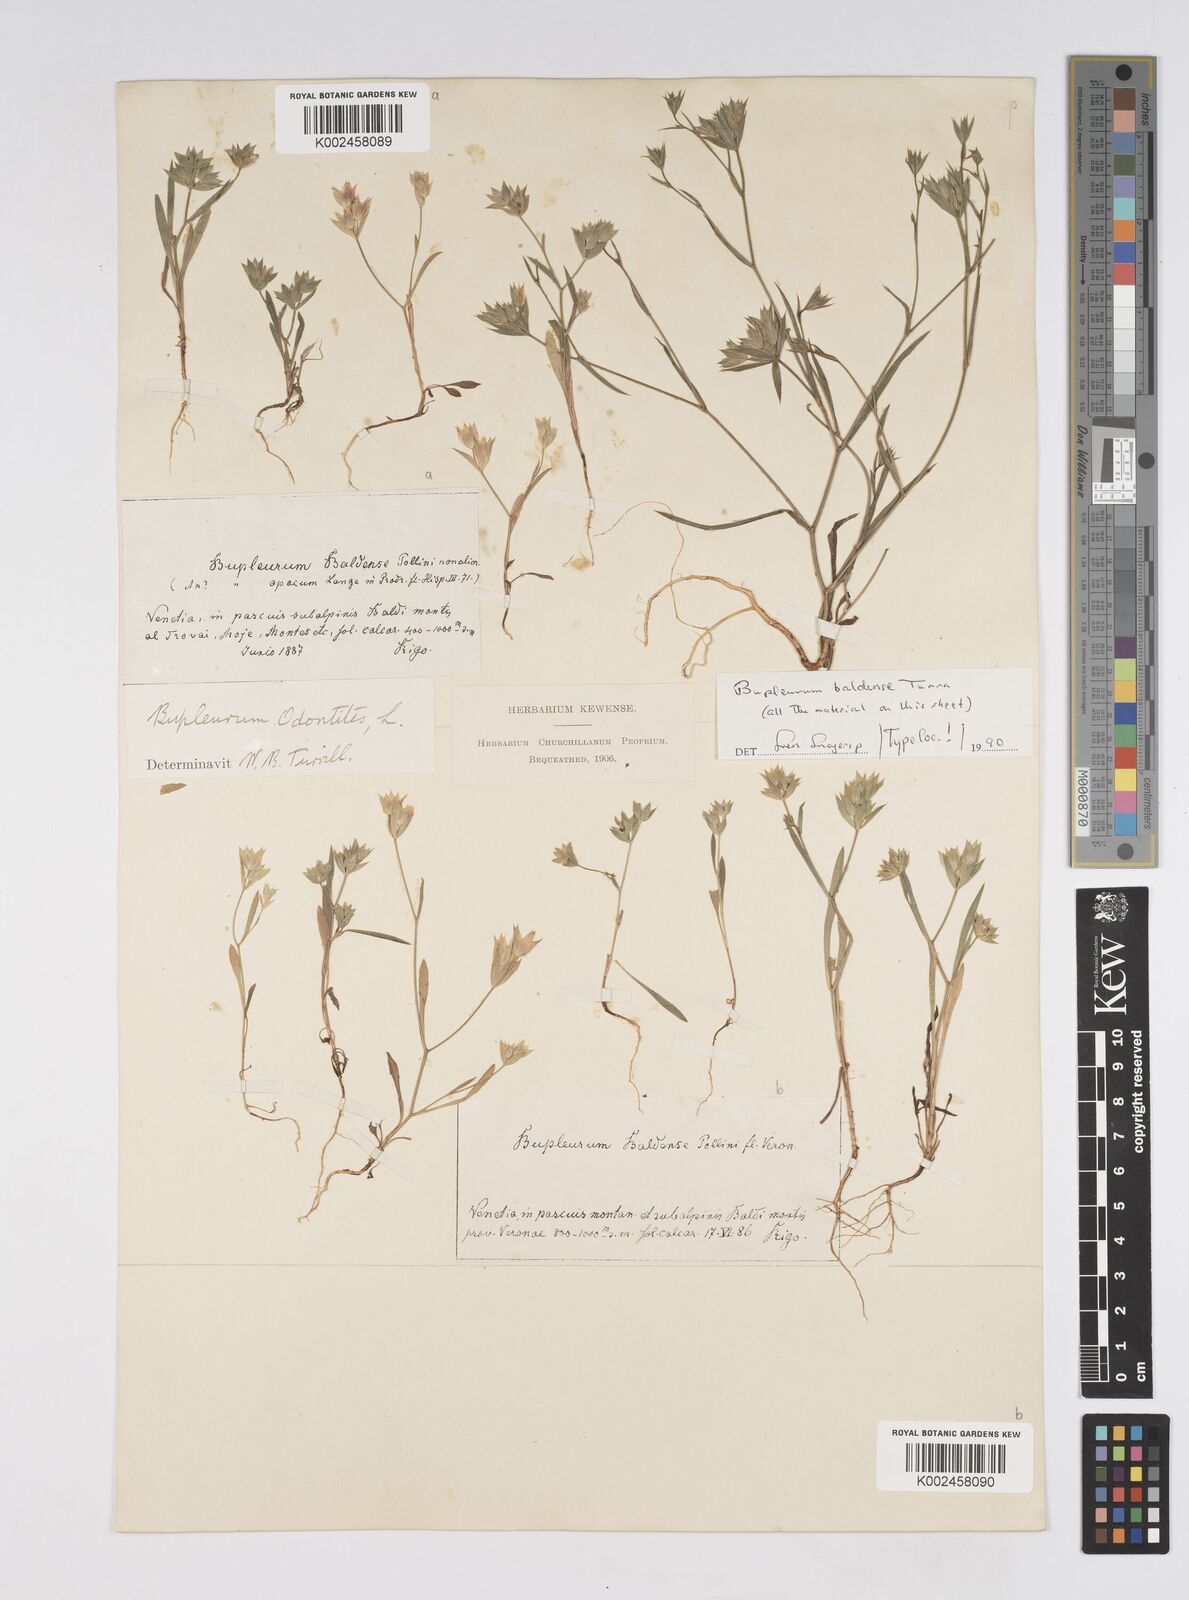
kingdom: Plantae
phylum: Tracheophyta
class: Magnoliopsida
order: Apiales
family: Apiaceae
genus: Bupleurum
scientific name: Bupleurum baldense
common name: Small hare's-ear
